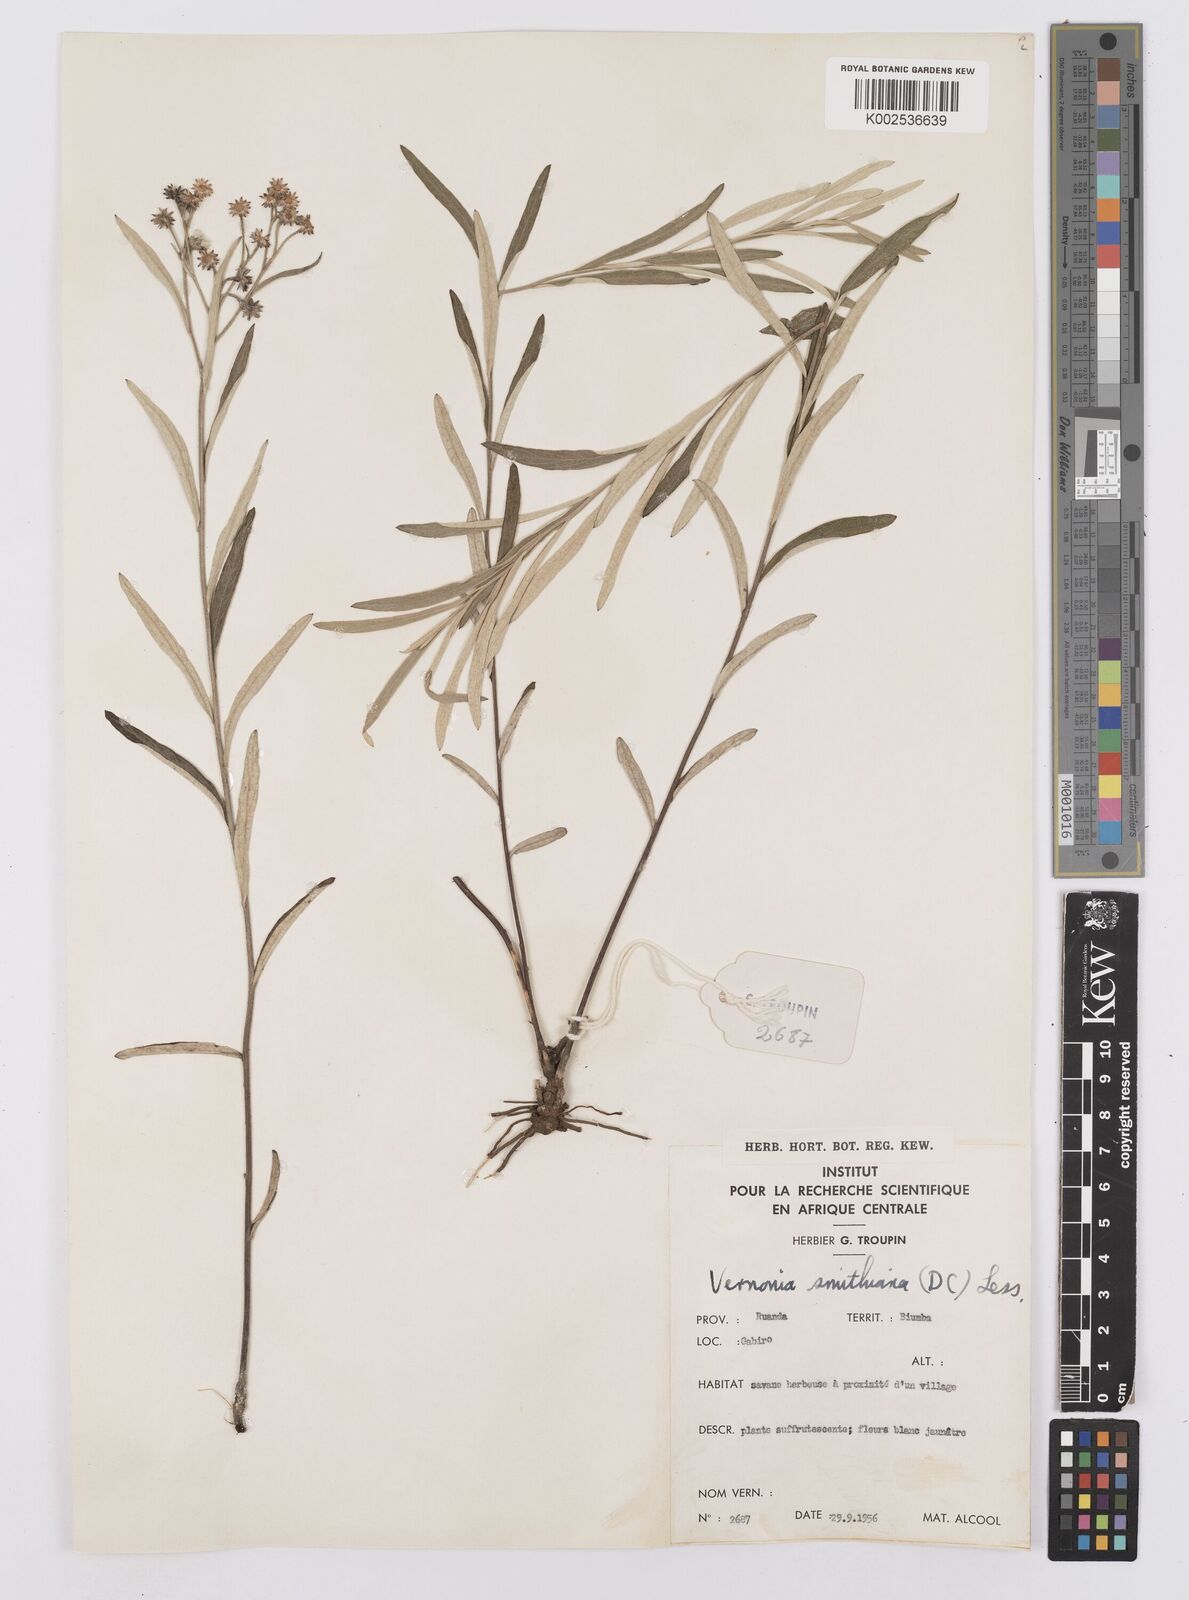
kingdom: Plantae
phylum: Tracheophyta
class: Magnoliopsida
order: Asterales
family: Asteraceae
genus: Hilliardiella
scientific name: Hilliardiella smithiana
